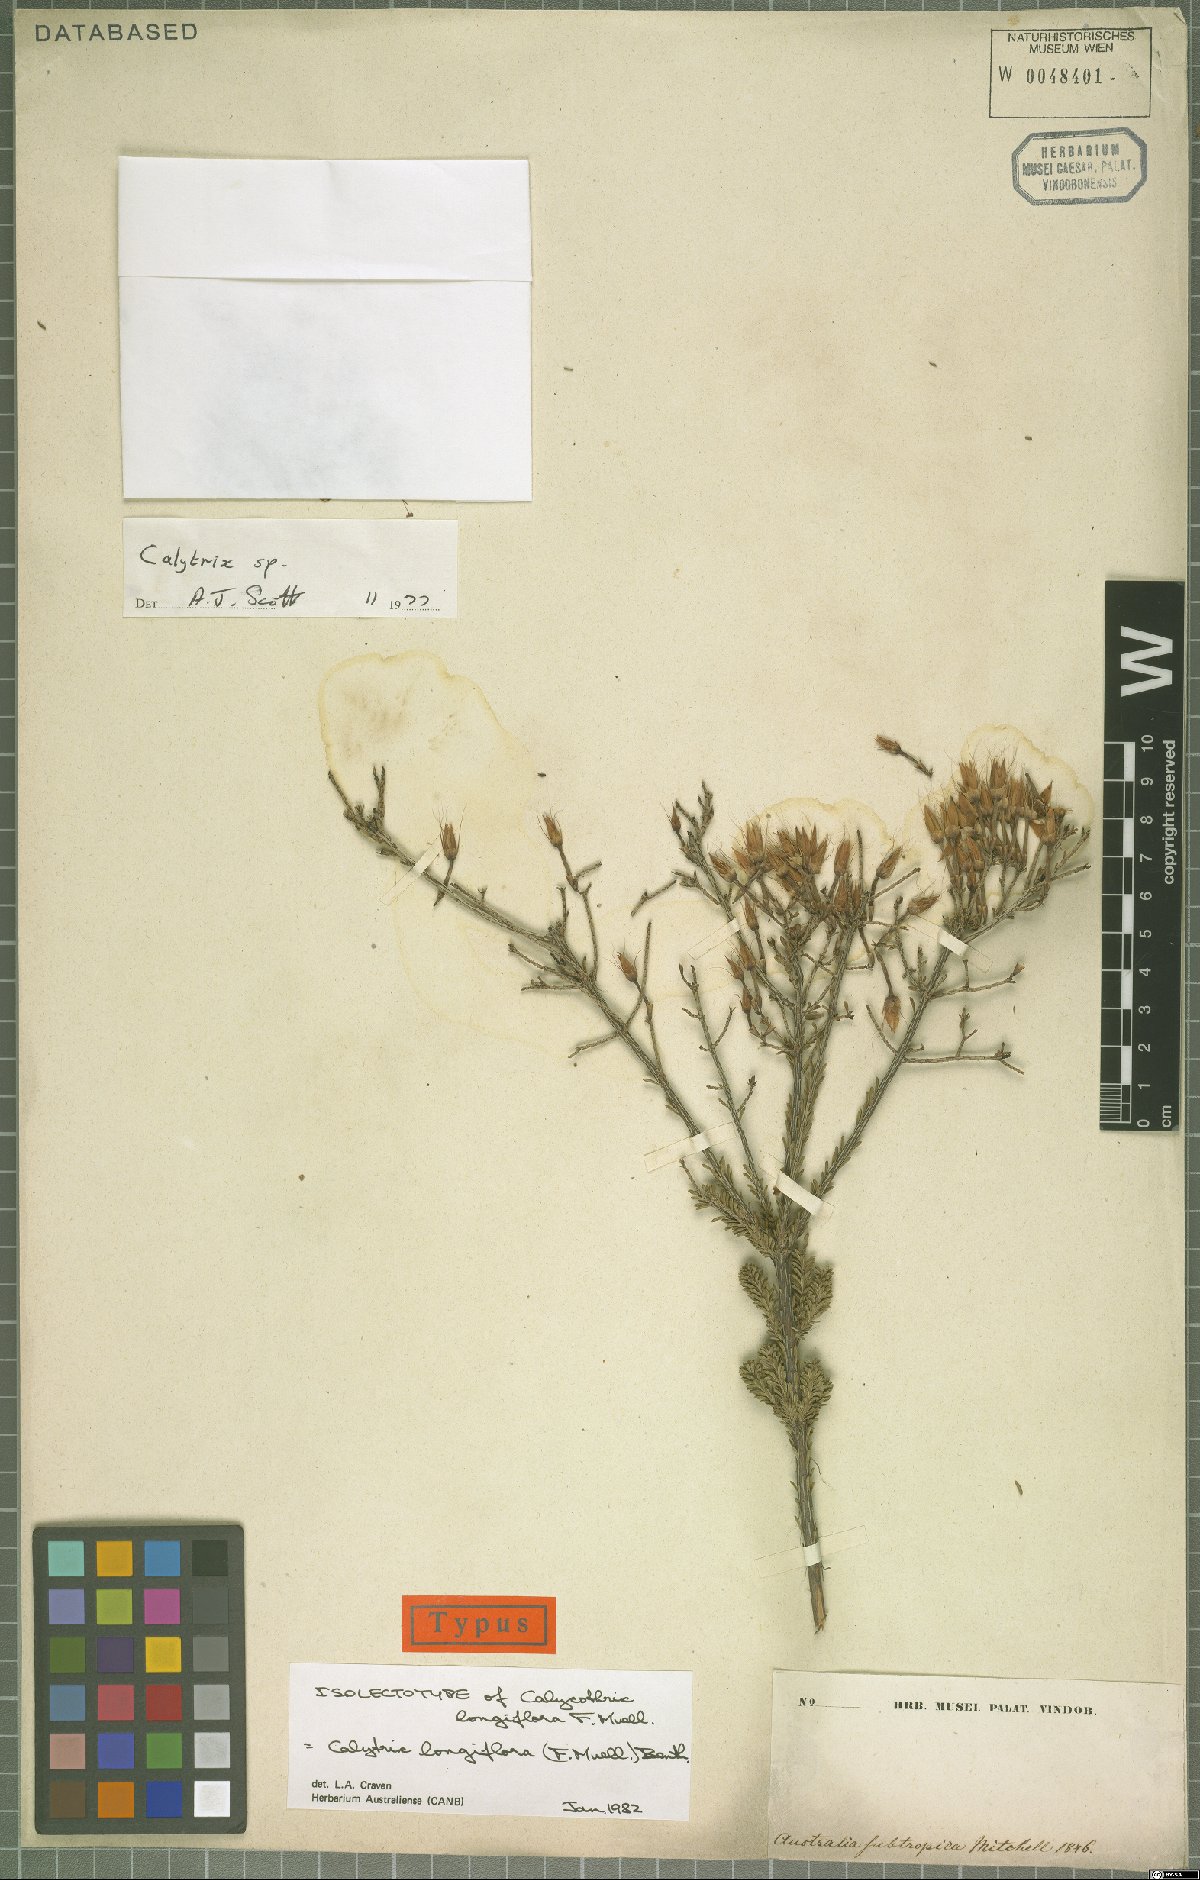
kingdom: Plantae
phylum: Tracheophyta
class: Magnoliopsida
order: Myrtales
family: Myrtaceae
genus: Calytrix
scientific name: Calytrix longiflora
